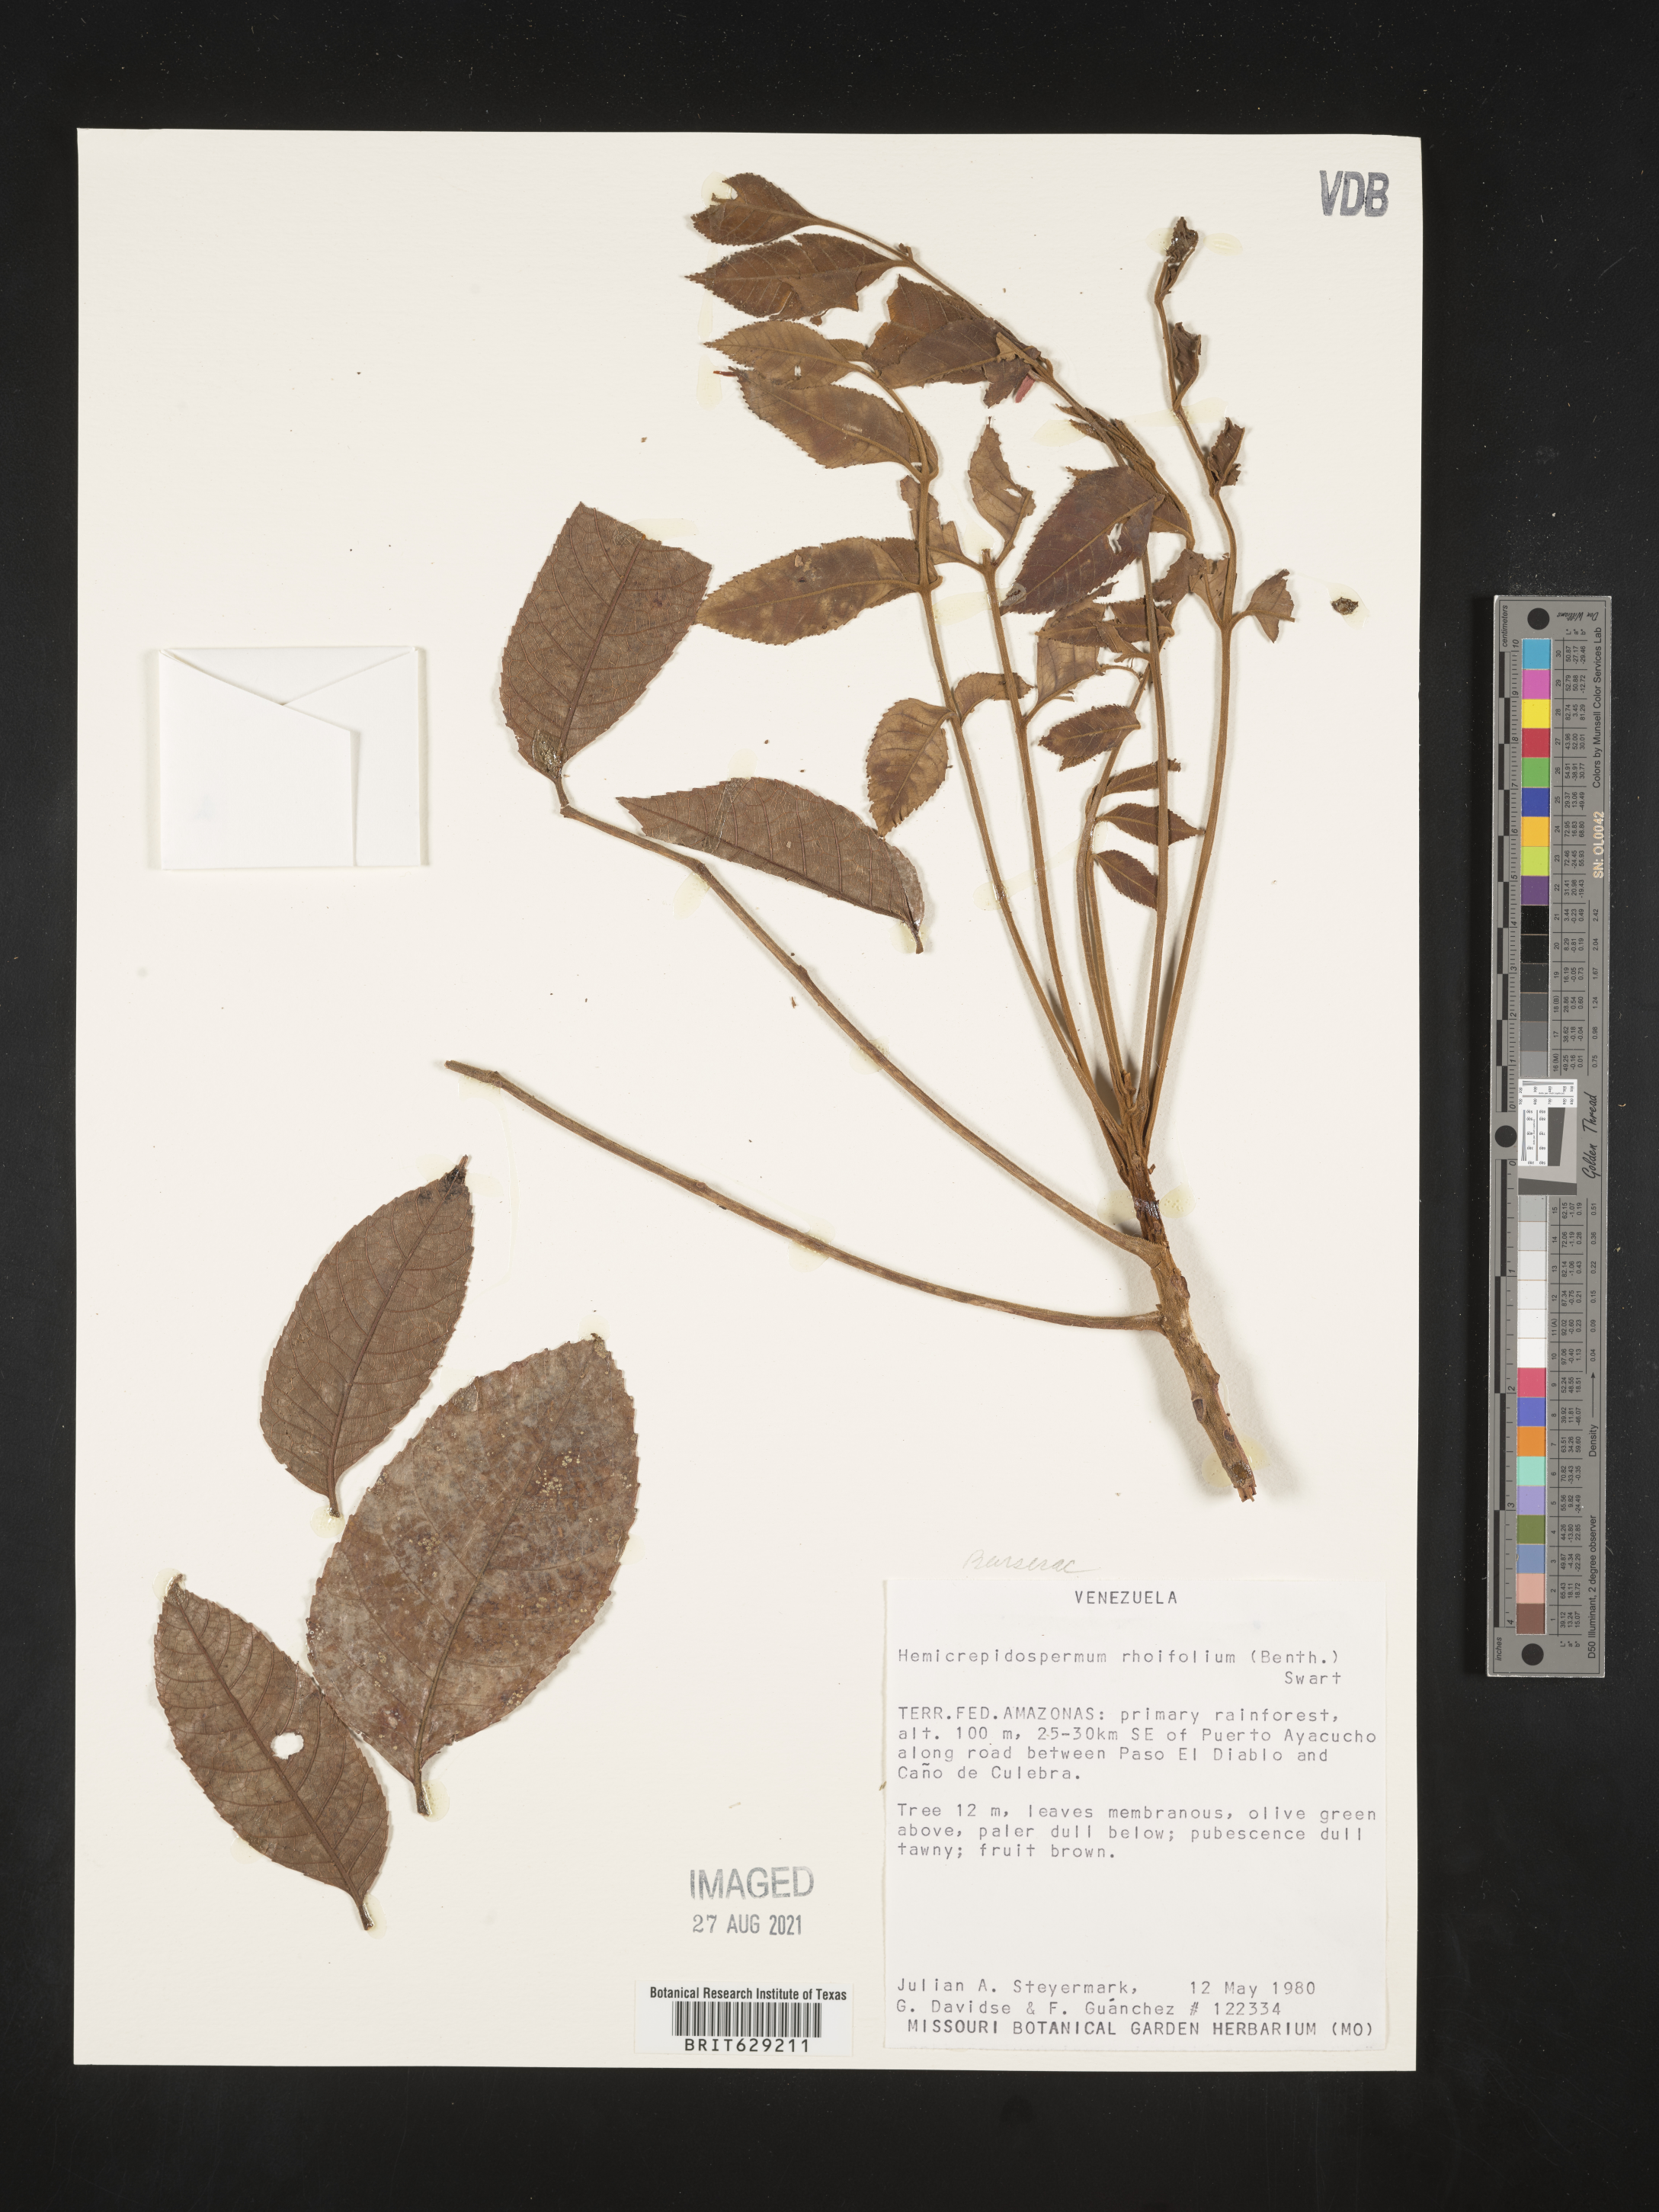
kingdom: Plantae
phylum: Tracheophyta
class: Magnoliopsida
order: Sapindales
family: Burseraceae
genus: Crepidospermum
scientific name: Crepidospermum rhoifolium
